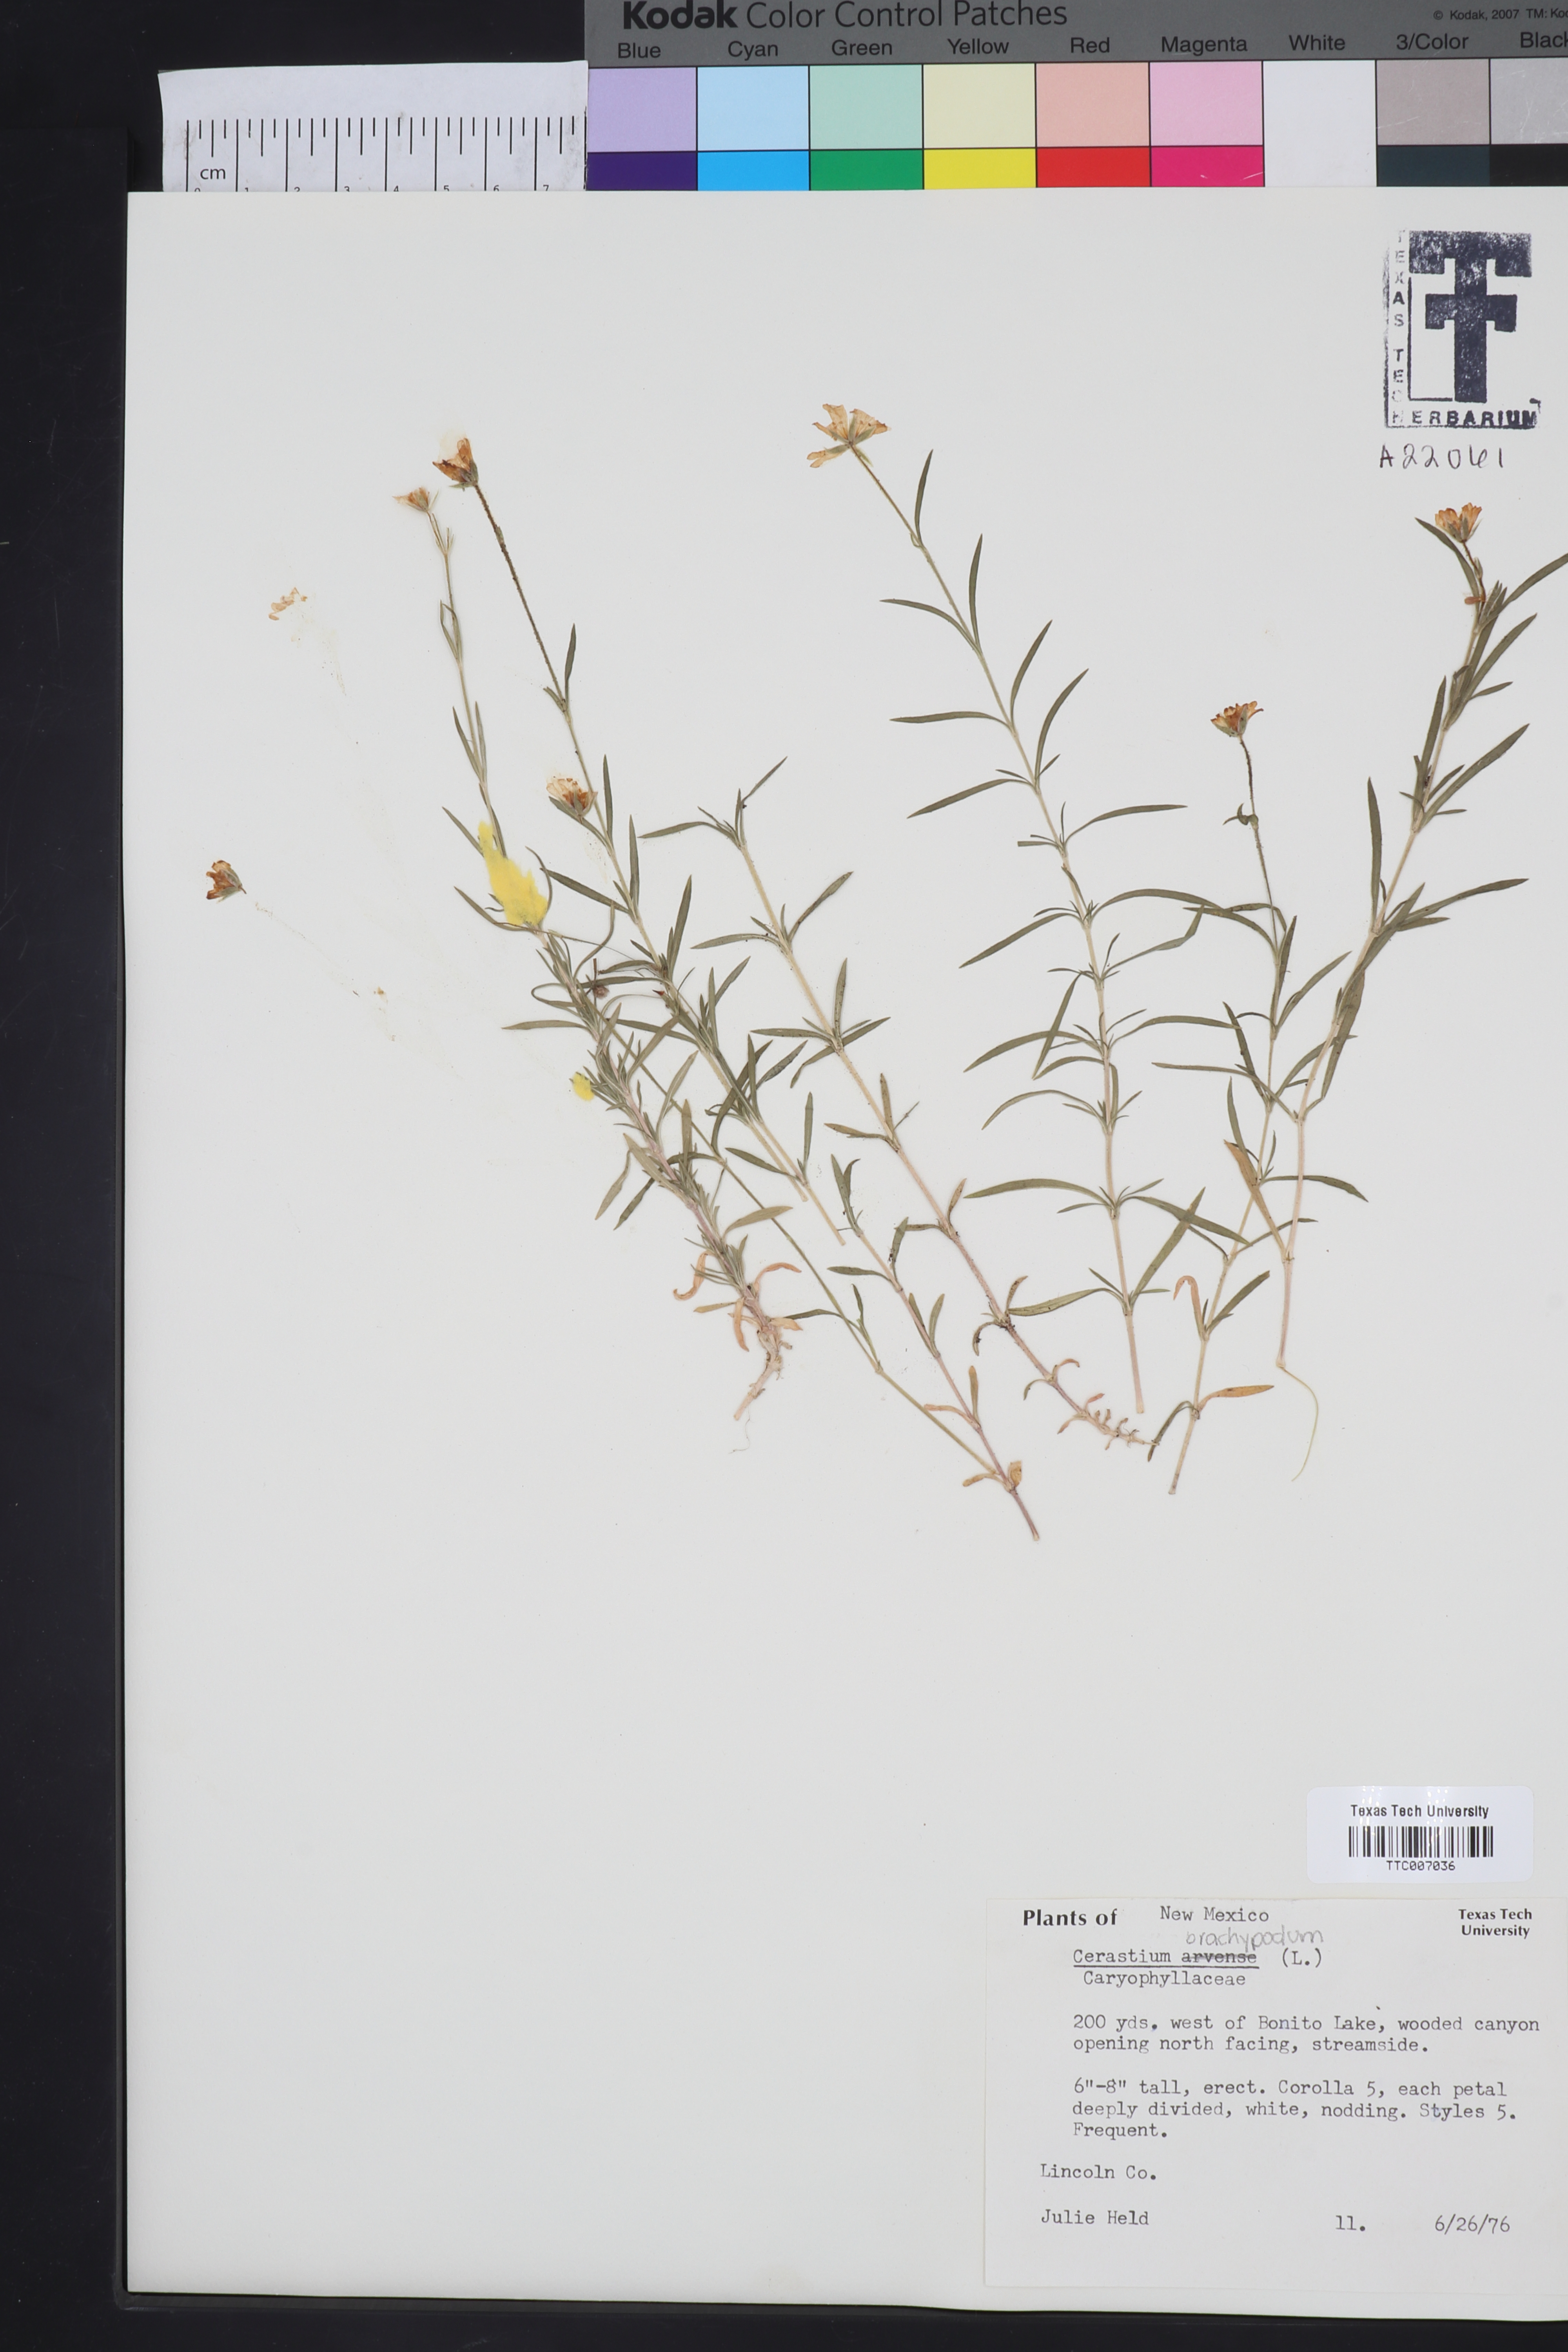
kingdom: Plantae
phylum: Tracheophyta
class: Magnoliopsida
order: Caryophyllales
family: Caryophyllaceae
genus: Cerastium
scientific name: Cerastium arvense
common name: Field mouse-ear
